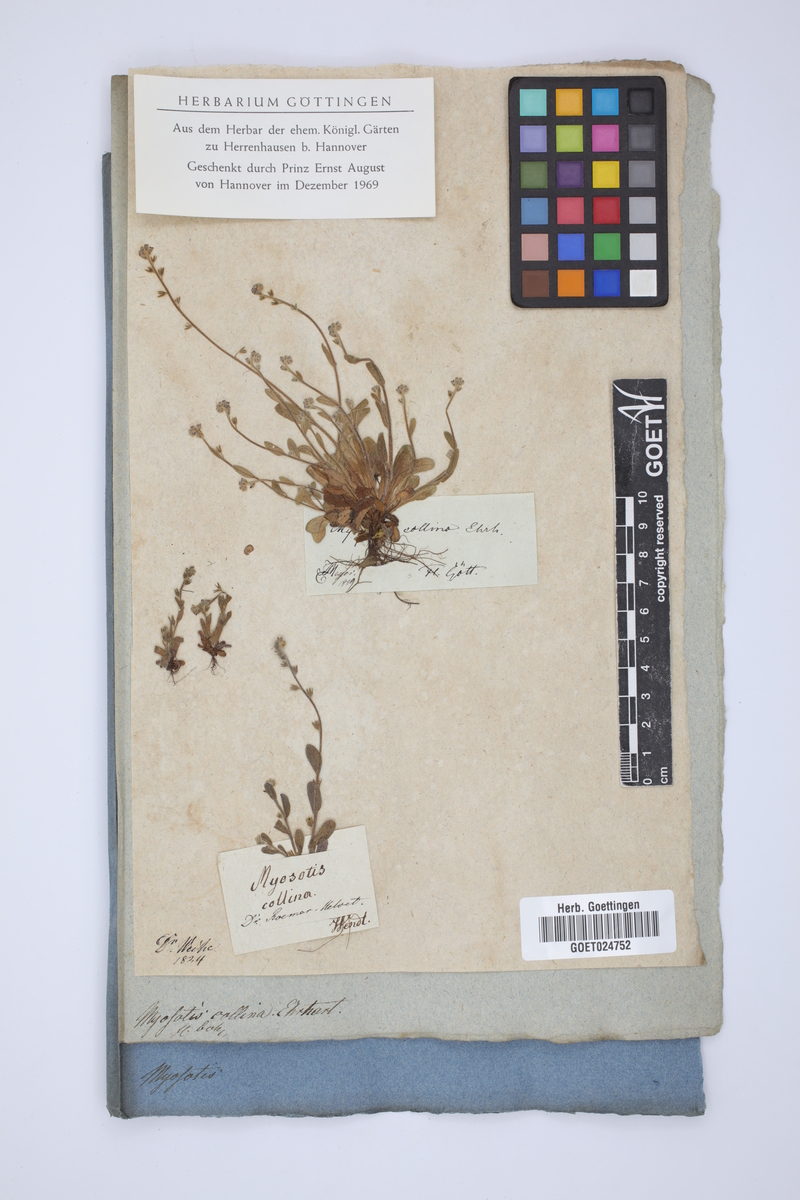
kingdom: Plantae
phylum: Tracheophyta
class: Magnoliopsida
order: Boraginales
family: Boraginaceae
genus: Myosotis
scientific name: Myosotis discolor
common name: Changing forget-me-not
